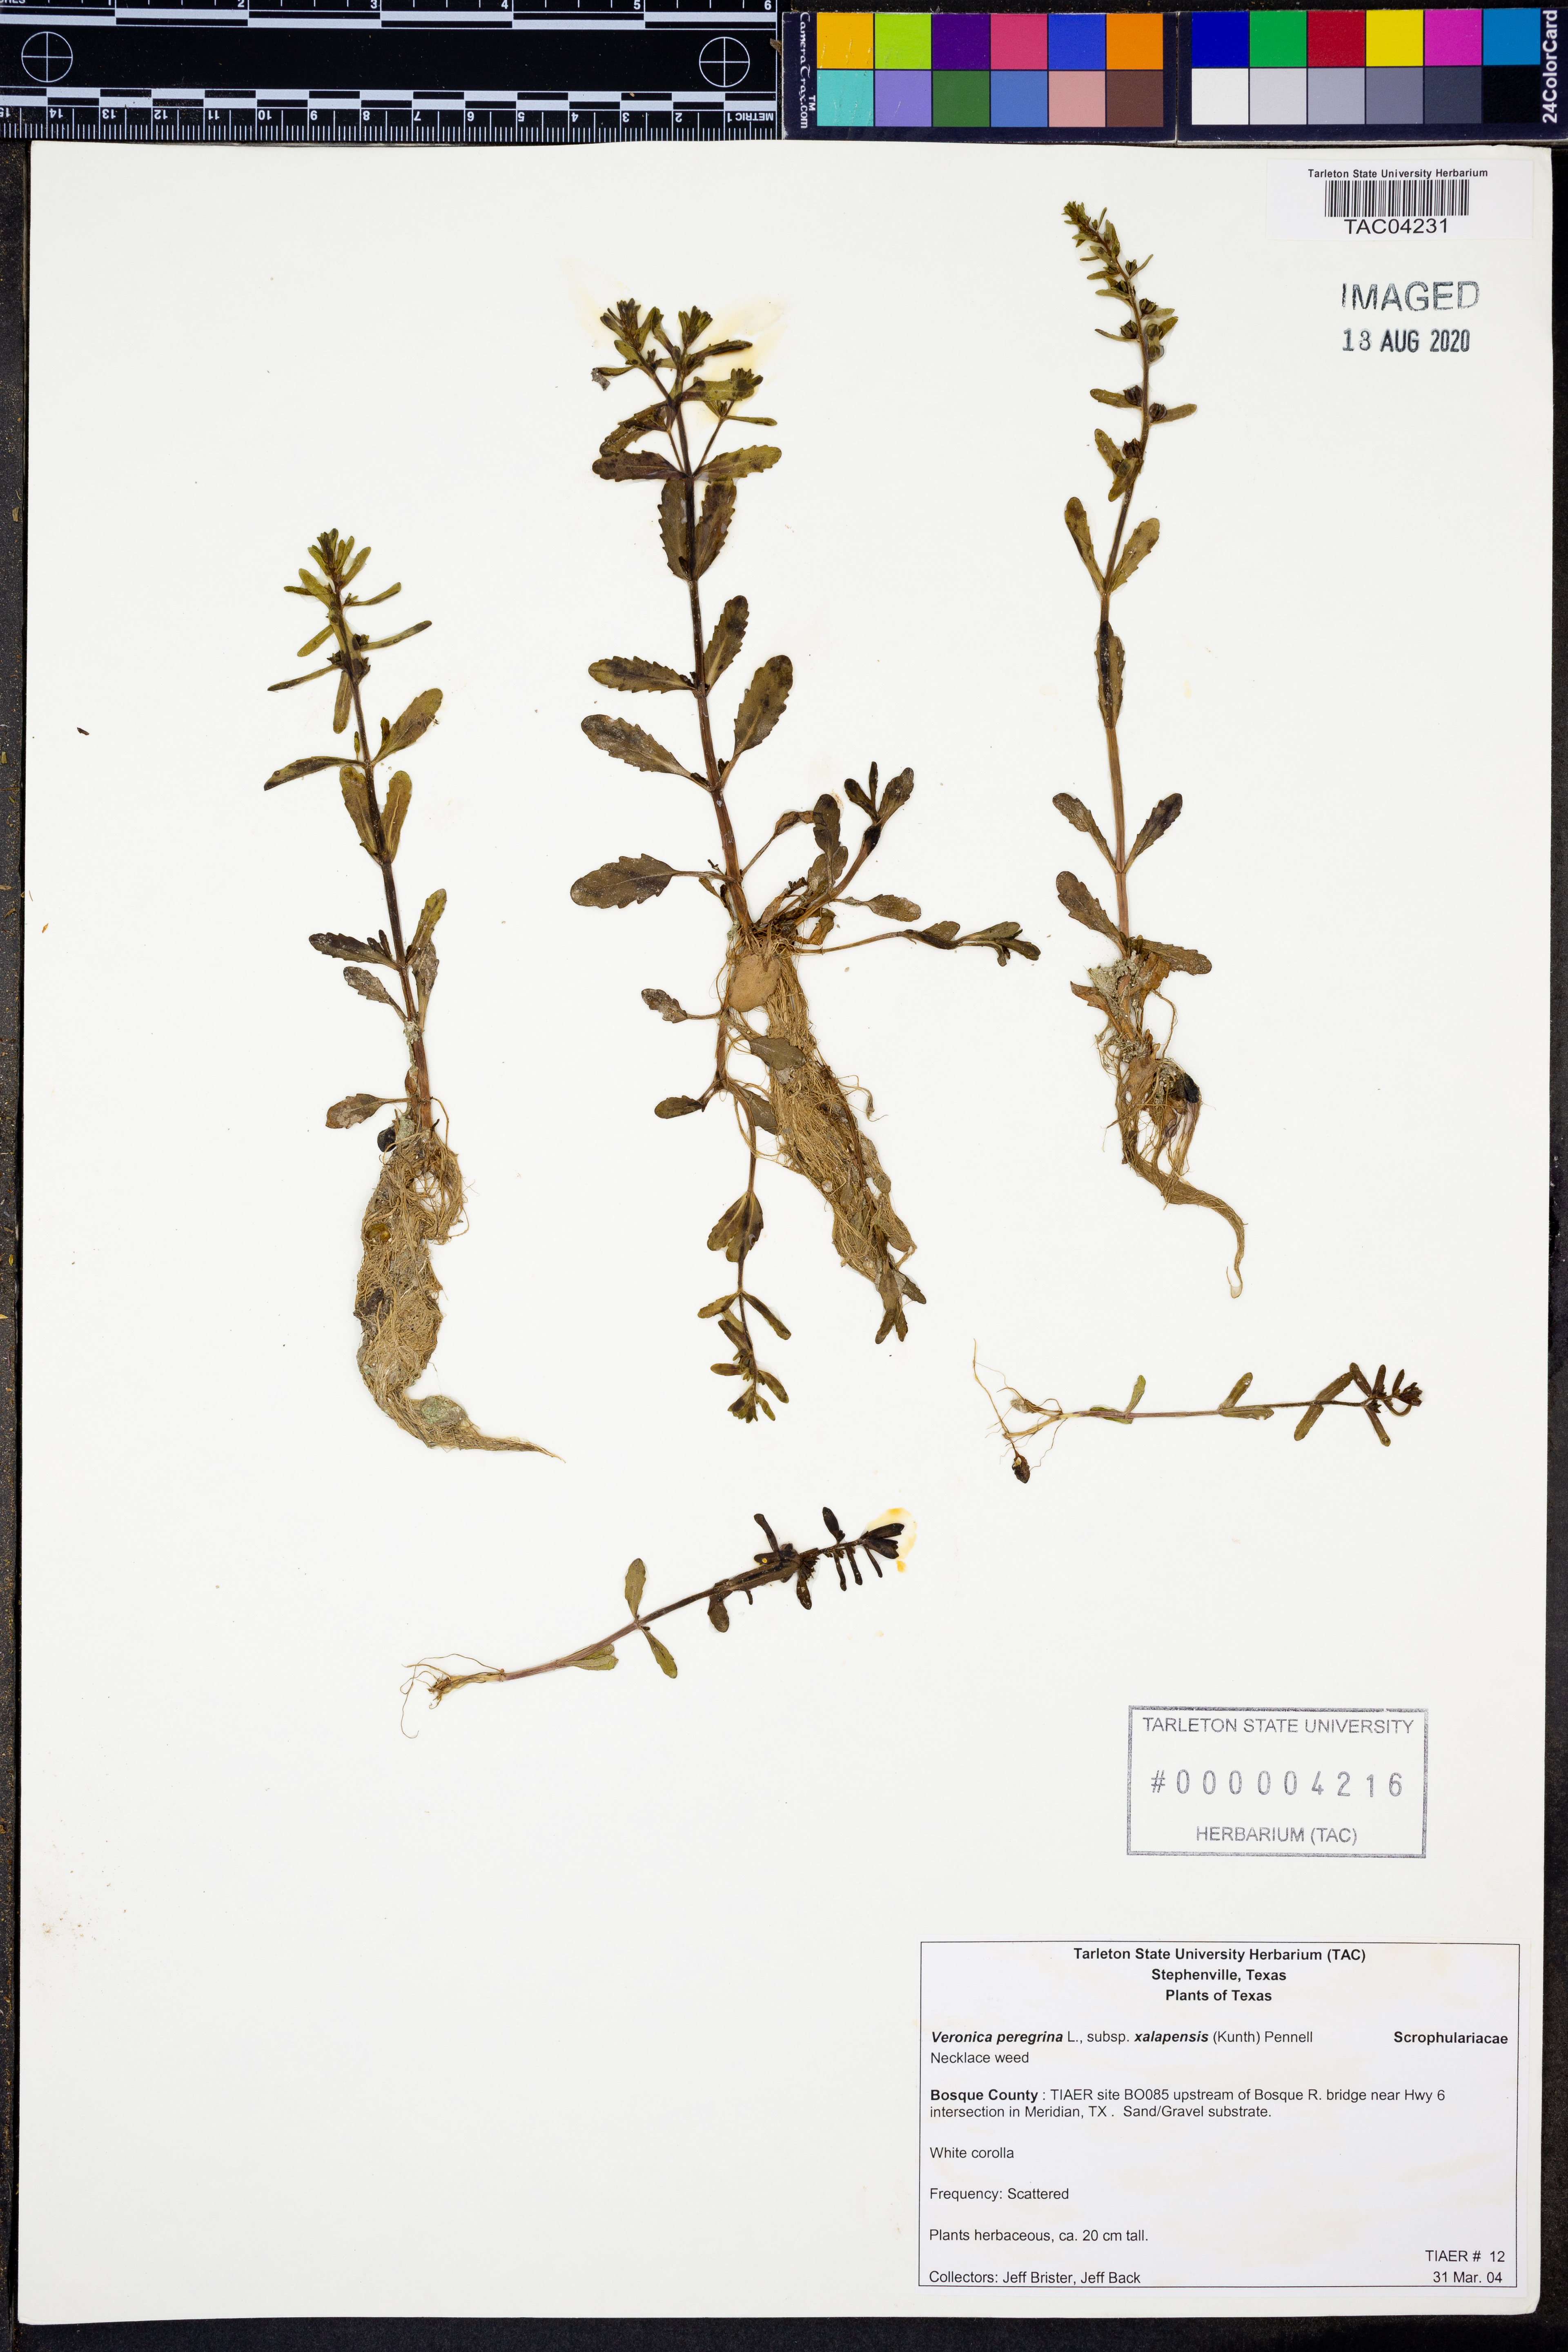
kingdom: Plantae
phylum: Tracheophyta
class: Magnoliopsida
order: Lamiales
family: Plantaginaceae
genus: Veronica
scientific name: Veronica peregrina
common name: Neckweed
